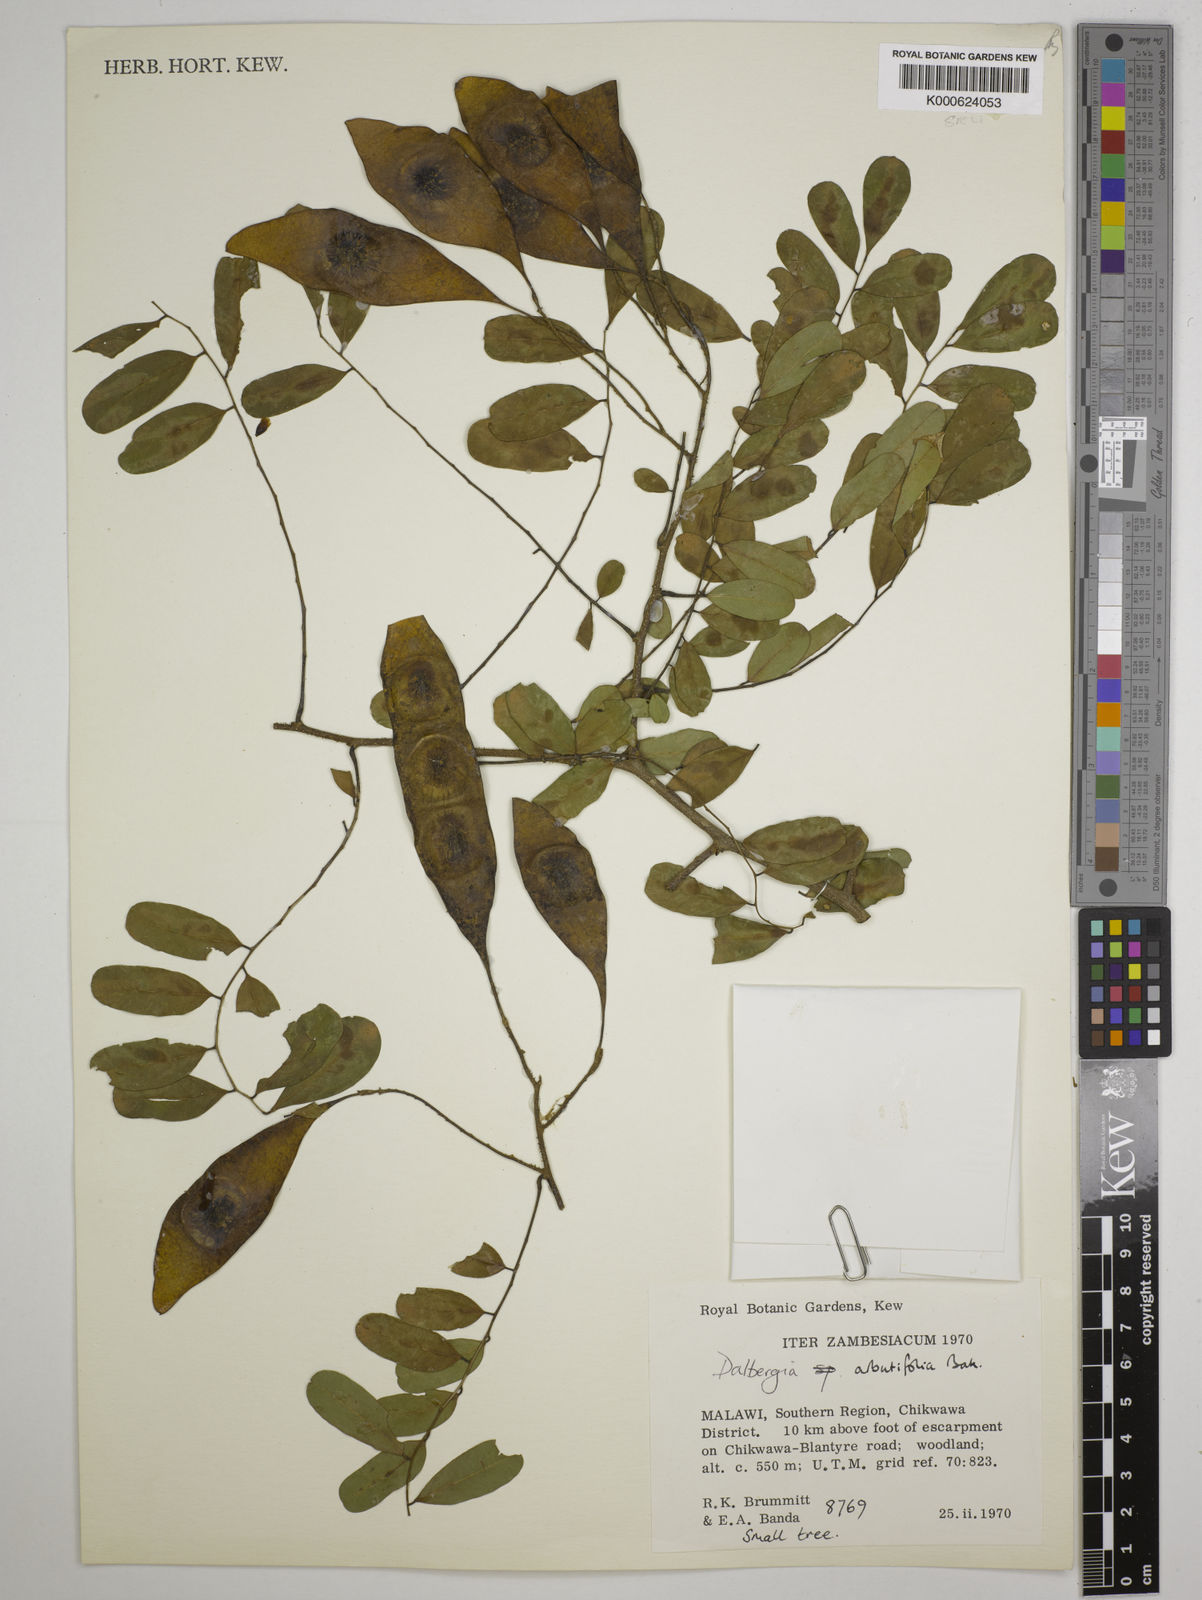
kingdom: Plantae
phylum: Tracheophyta
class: Magnoliopsida
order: Fabales
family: Fabaceae
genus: Dalbergia
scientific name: Dalbergia arbutifolia
